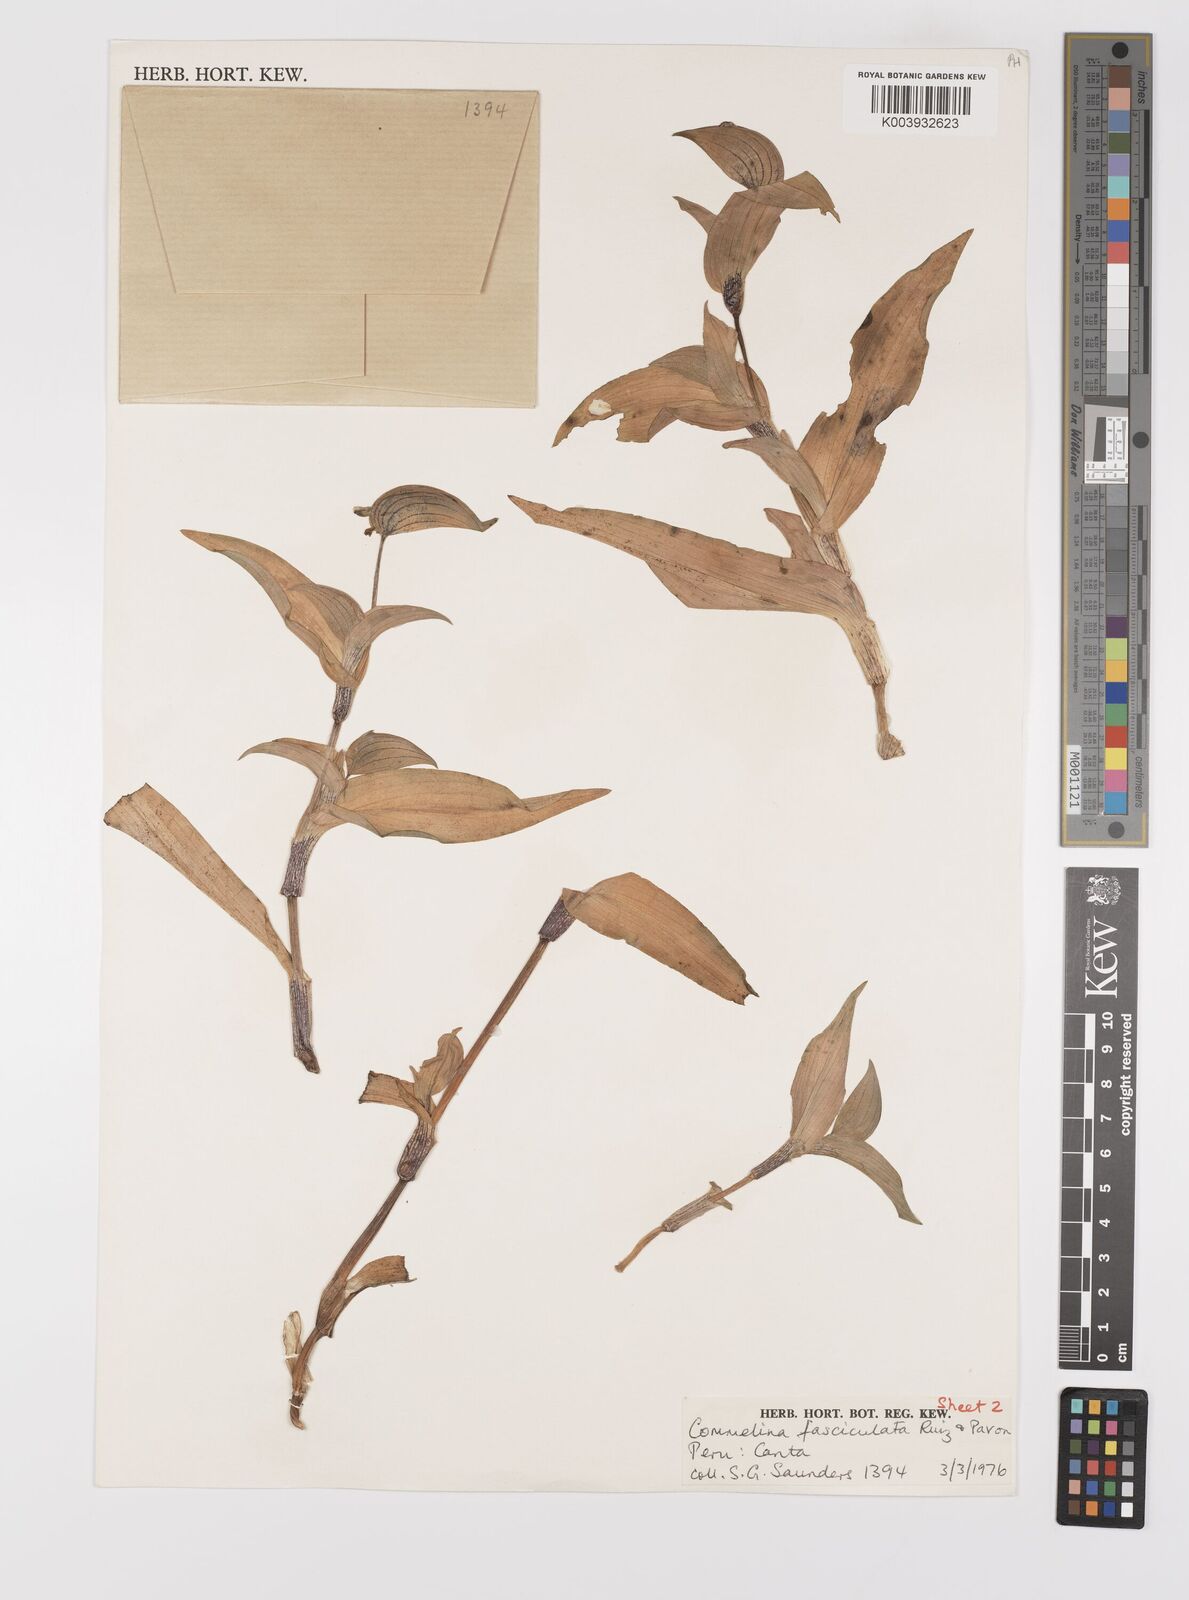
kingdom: Plantae
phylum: Tracheophyta
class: Liliopsida
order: Commelinales
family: Commelinaceae
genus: Commelina
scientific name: Commelina tuberosa
